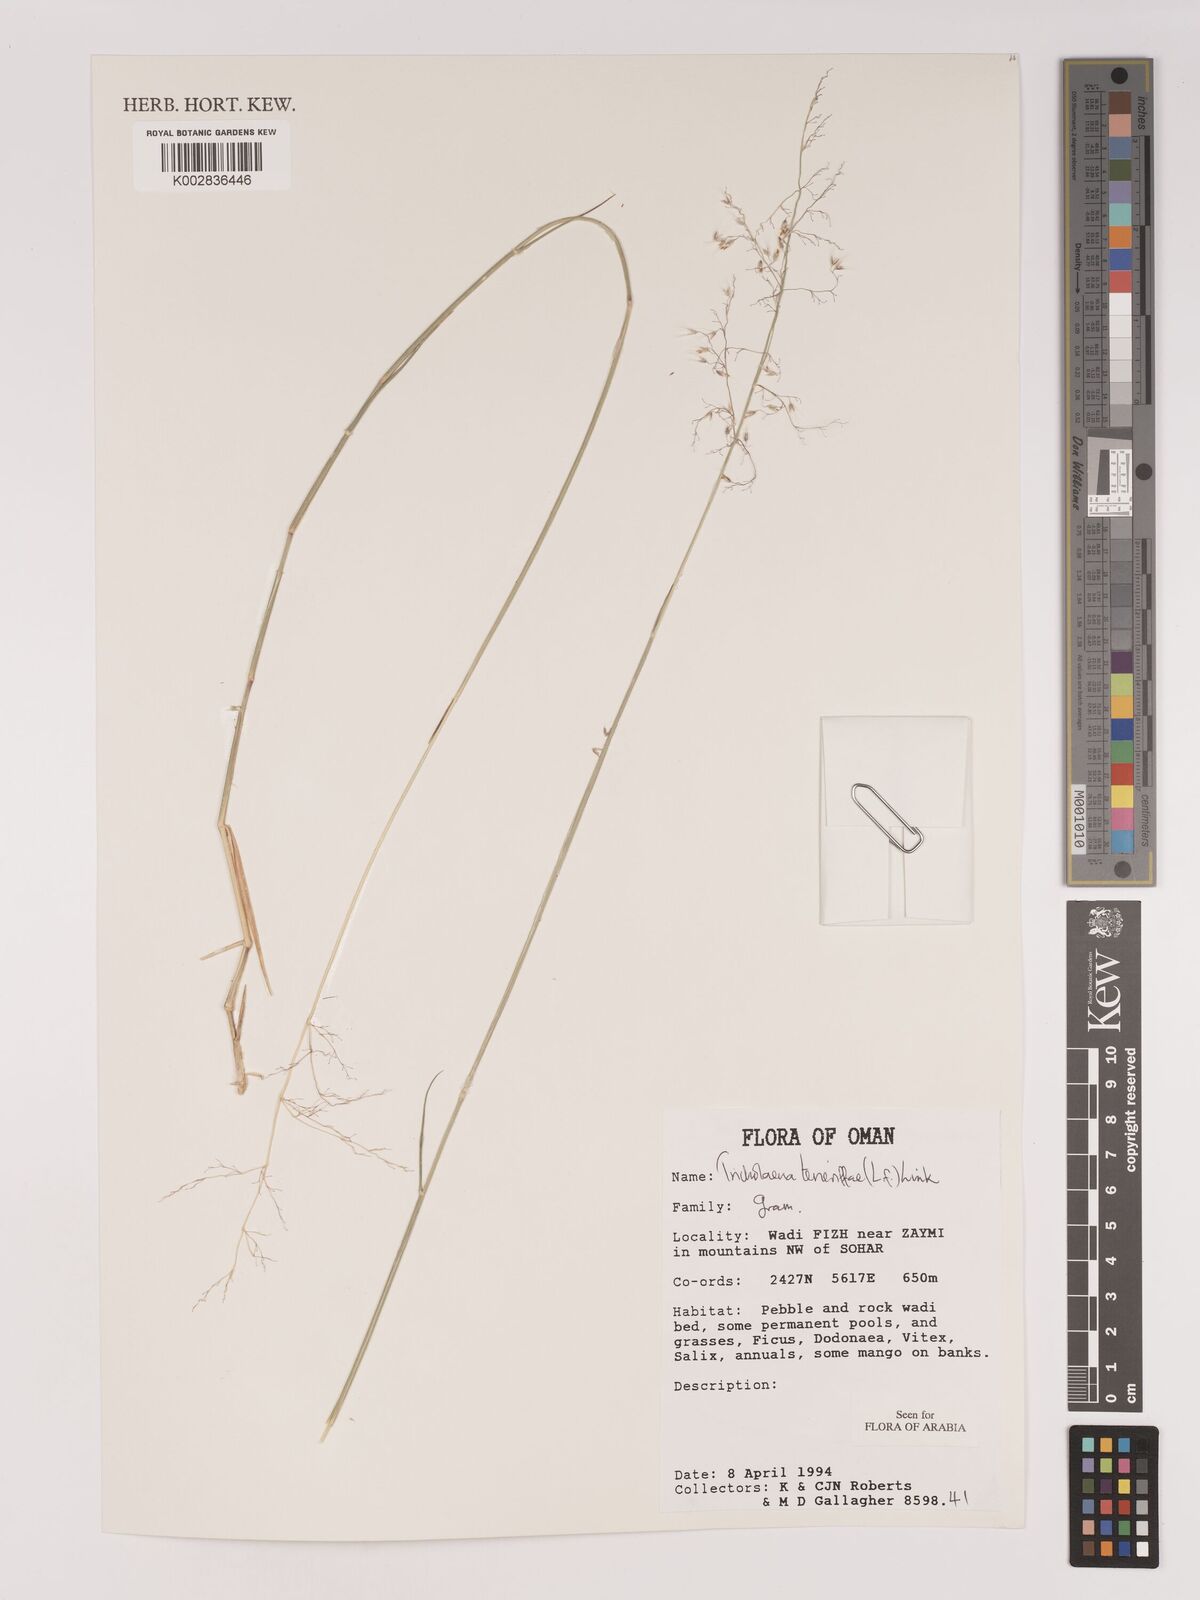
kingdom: Plantae
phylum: Tracheophyta
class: Liliopsida
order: Poales
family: Poaceae
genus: Tricholaena
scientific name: Tricholaena teneriffae
